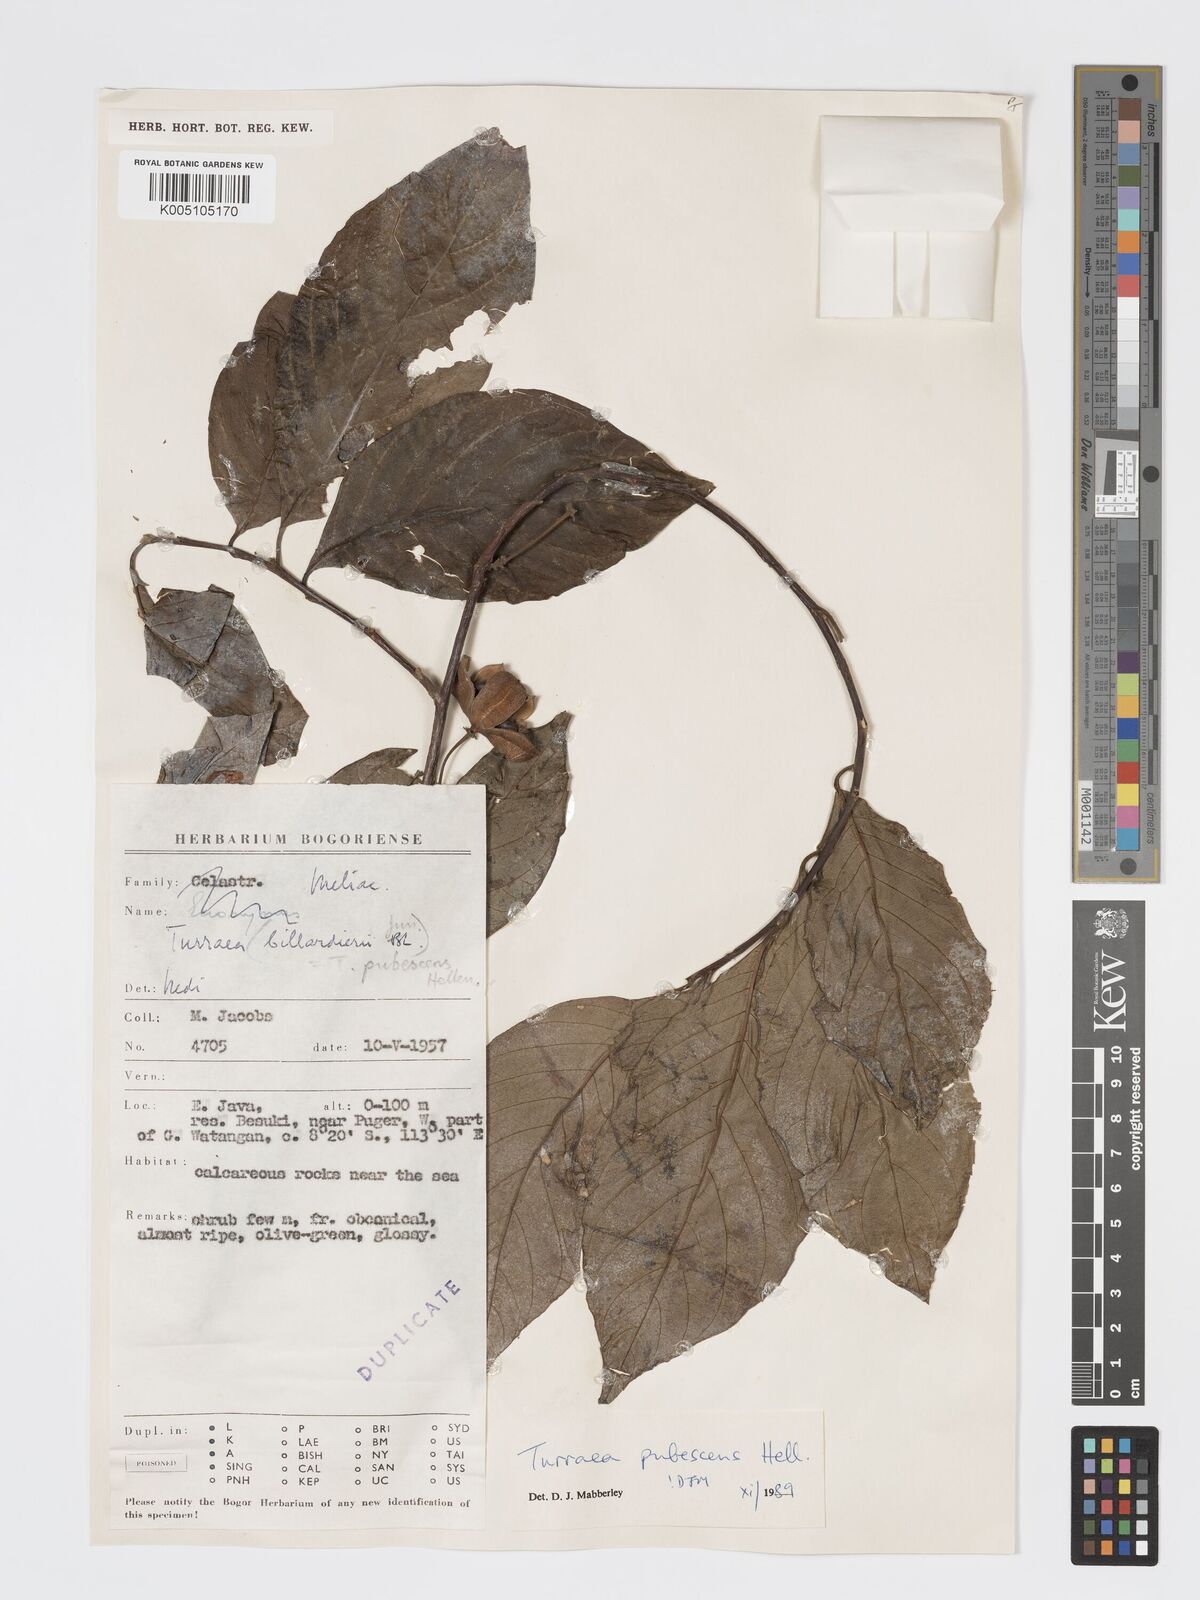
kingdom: Plantae
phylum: Tracheophyta
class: Magnoliopsida
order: Sapindales
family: Meliaceae
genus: Turraea
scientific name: Turraea
